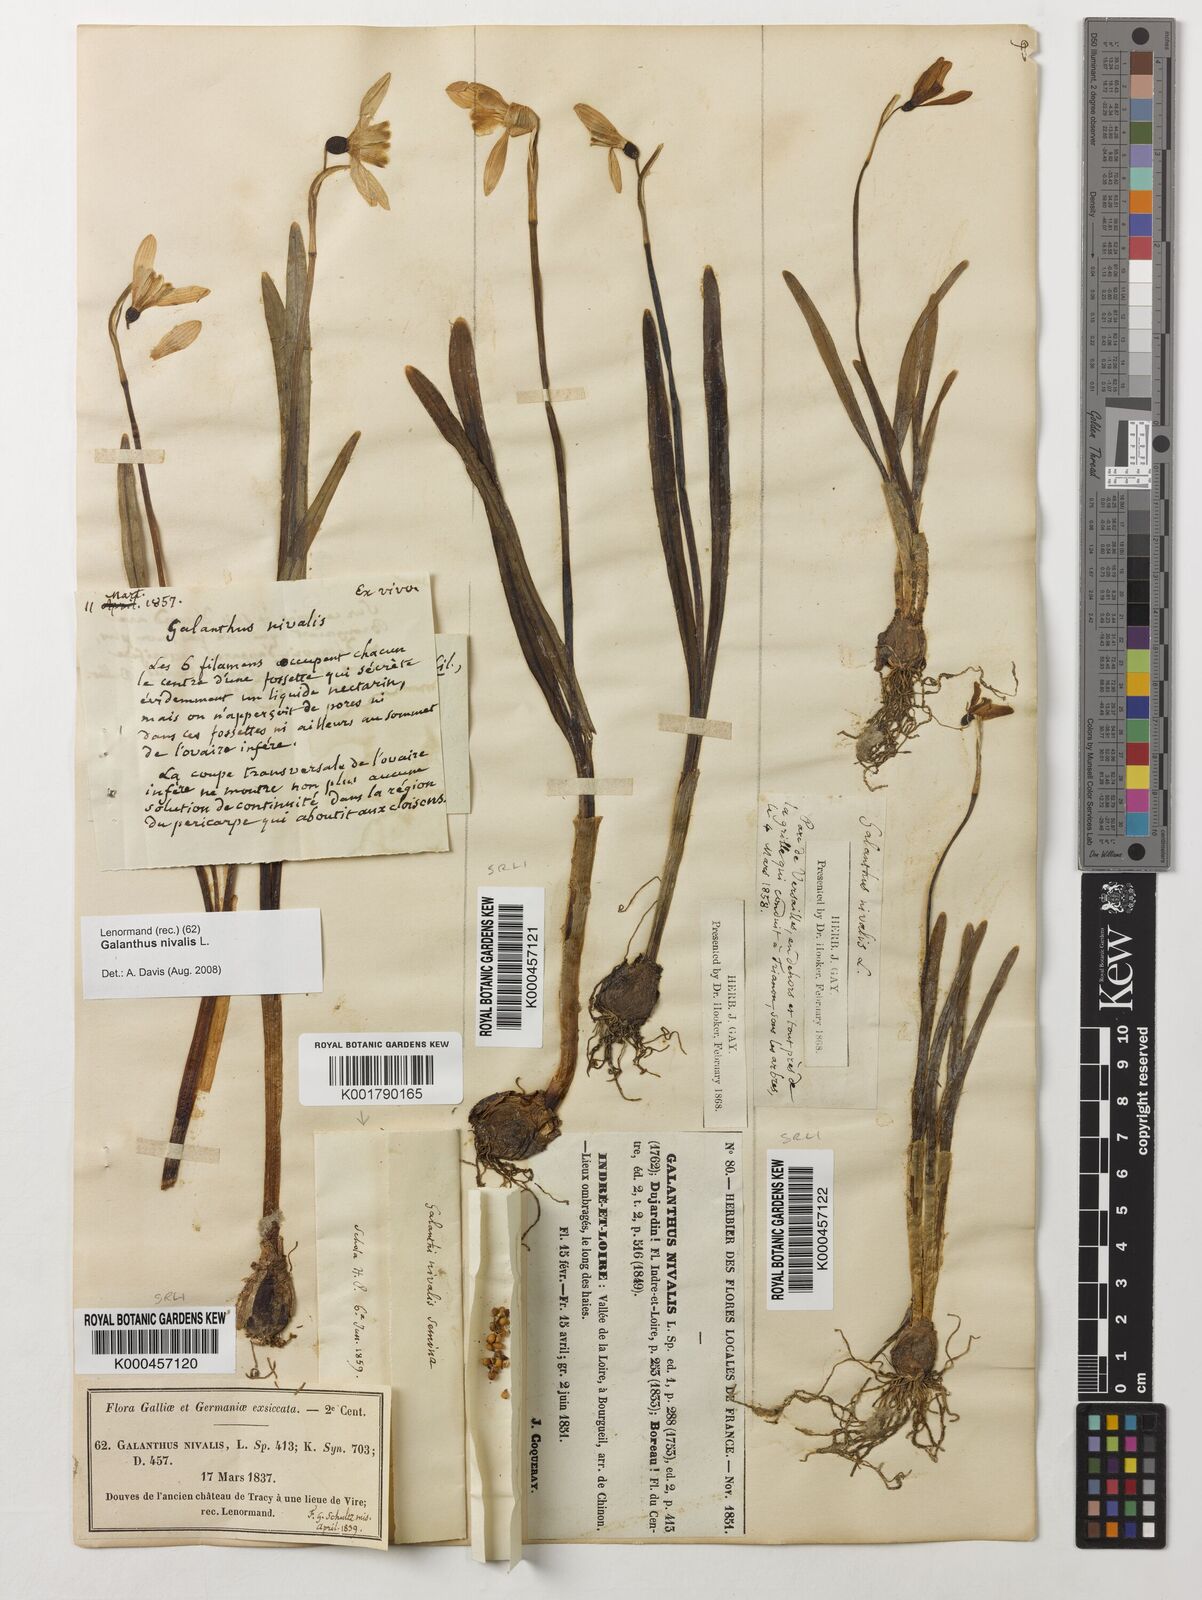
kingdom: Plantae
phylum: Tracheophyta
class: Liliopsida
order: Asparagales
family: Amaryllidaceae
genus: Galanthus
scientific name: Galanthus nivalis
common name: Snowdrop
